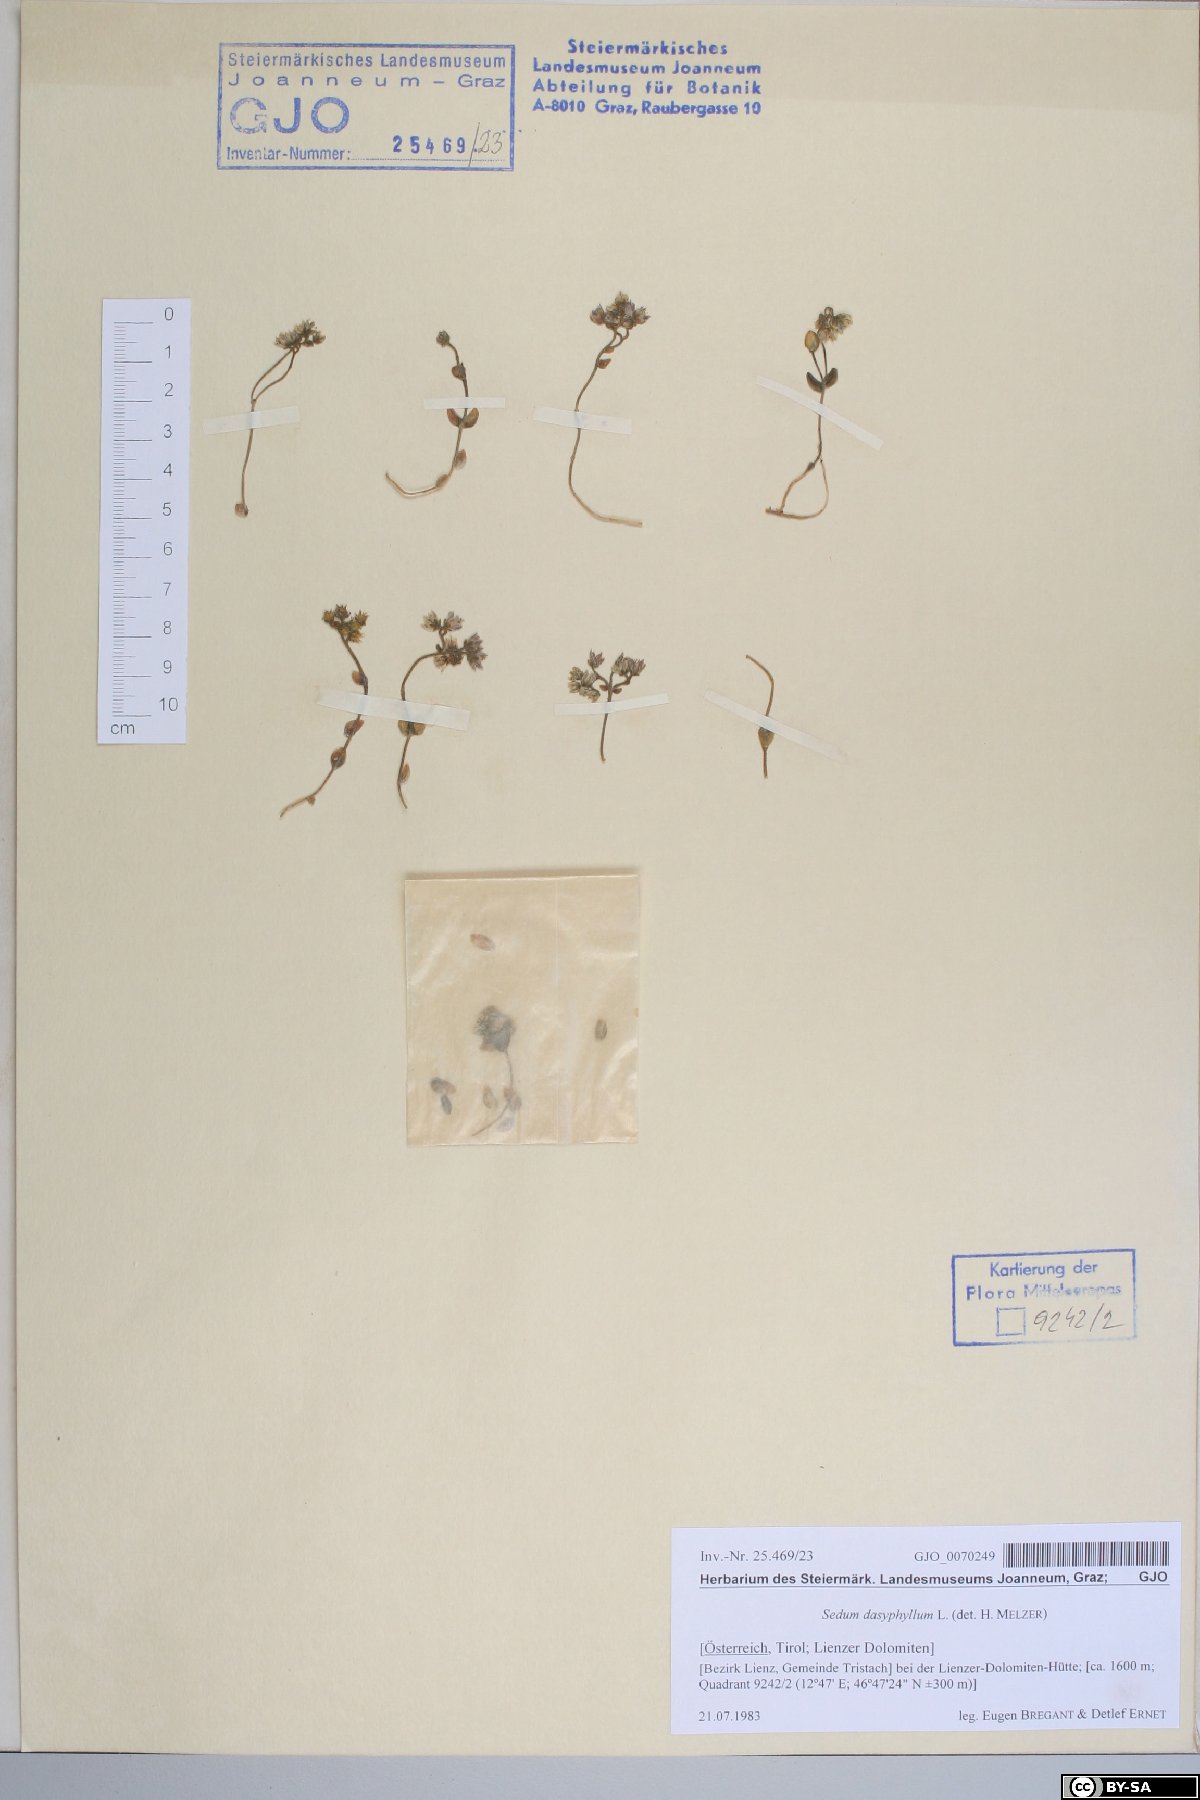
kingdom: Plantae
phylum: Tracheophyta
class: Magnoliopsida
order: Saxifragales
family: Crassulaceae
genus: Sedum
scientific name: Sedum dasyphyllum
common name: Thick-leaf stonecrop
